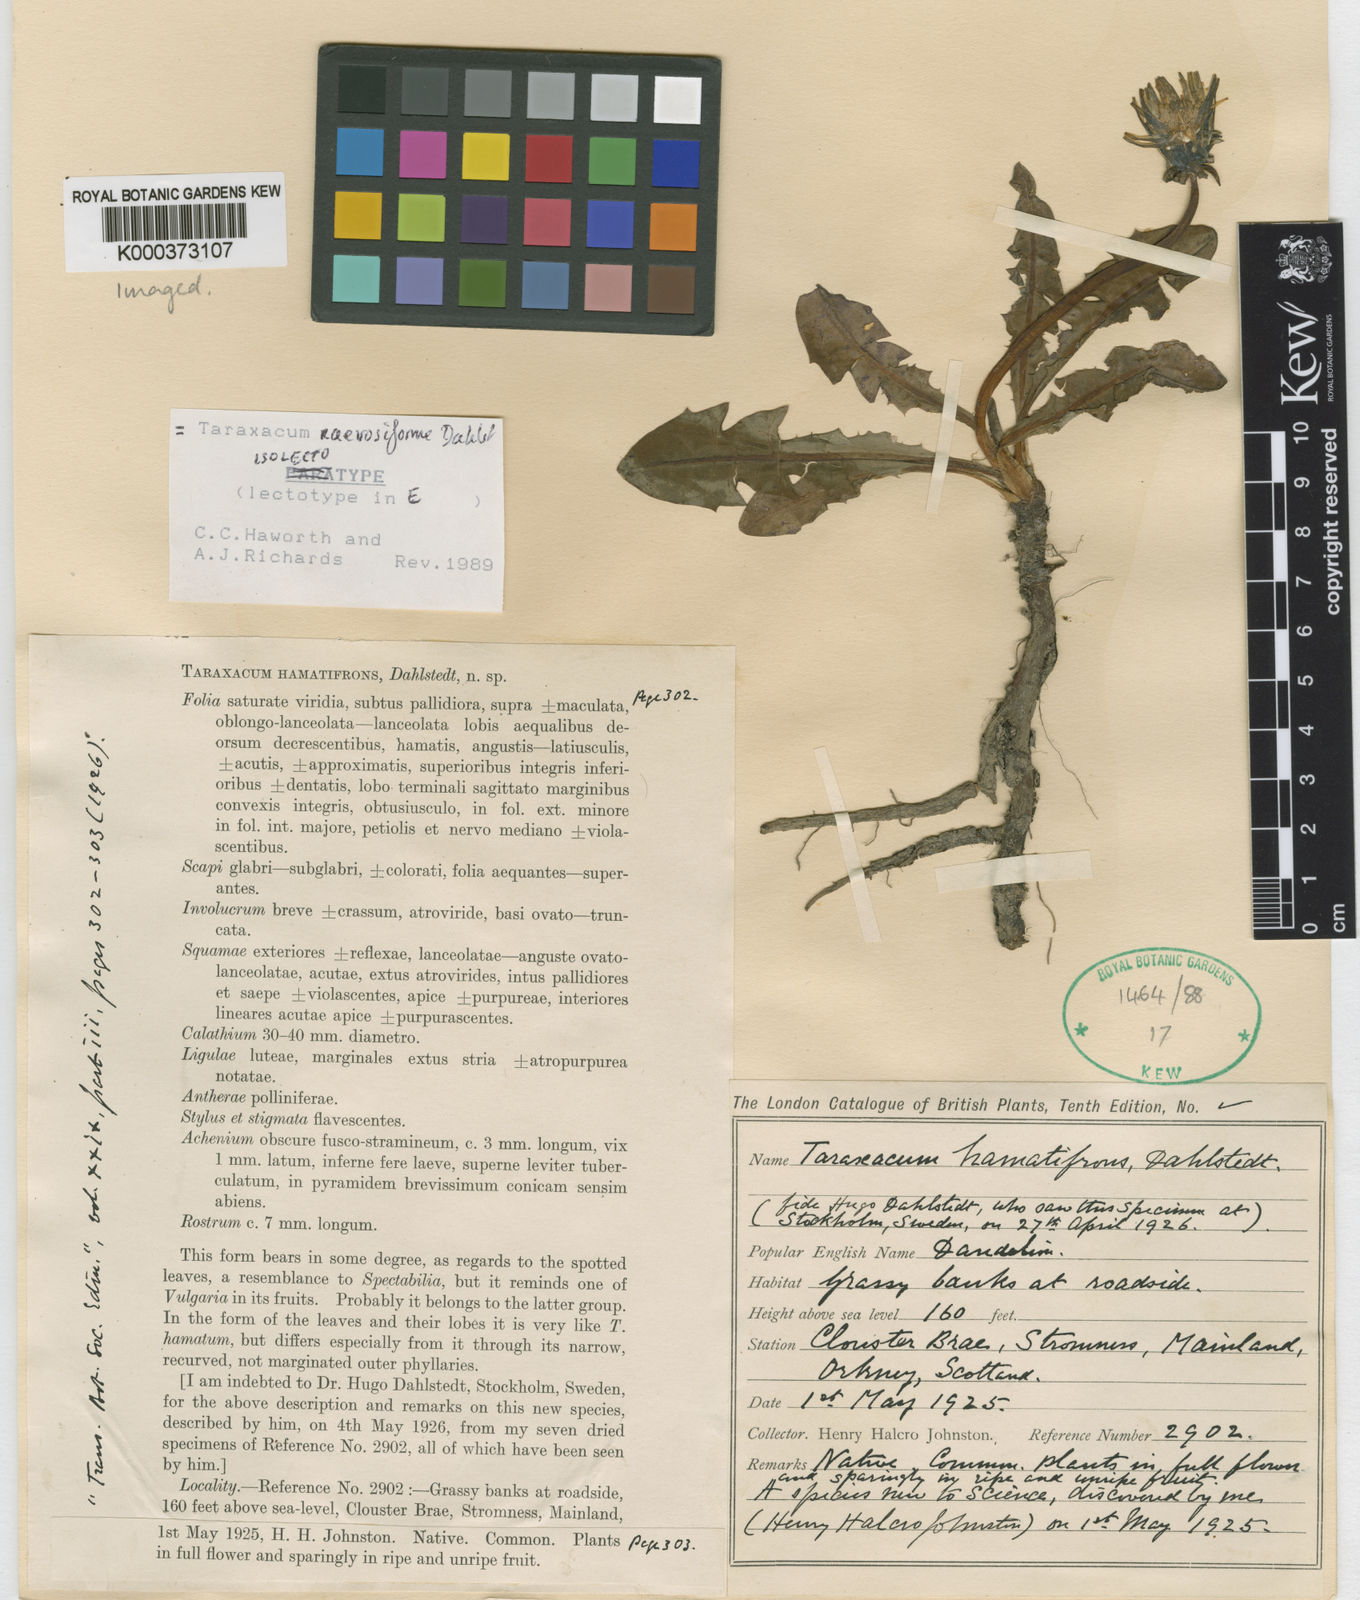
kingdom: Plantae
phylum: Tracheophyta
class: Magnoliopsida
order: Asterales
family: Asteraceae
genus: Taraxacum
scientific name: Taraxacum naevosiforme
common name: Wetland dandelion
